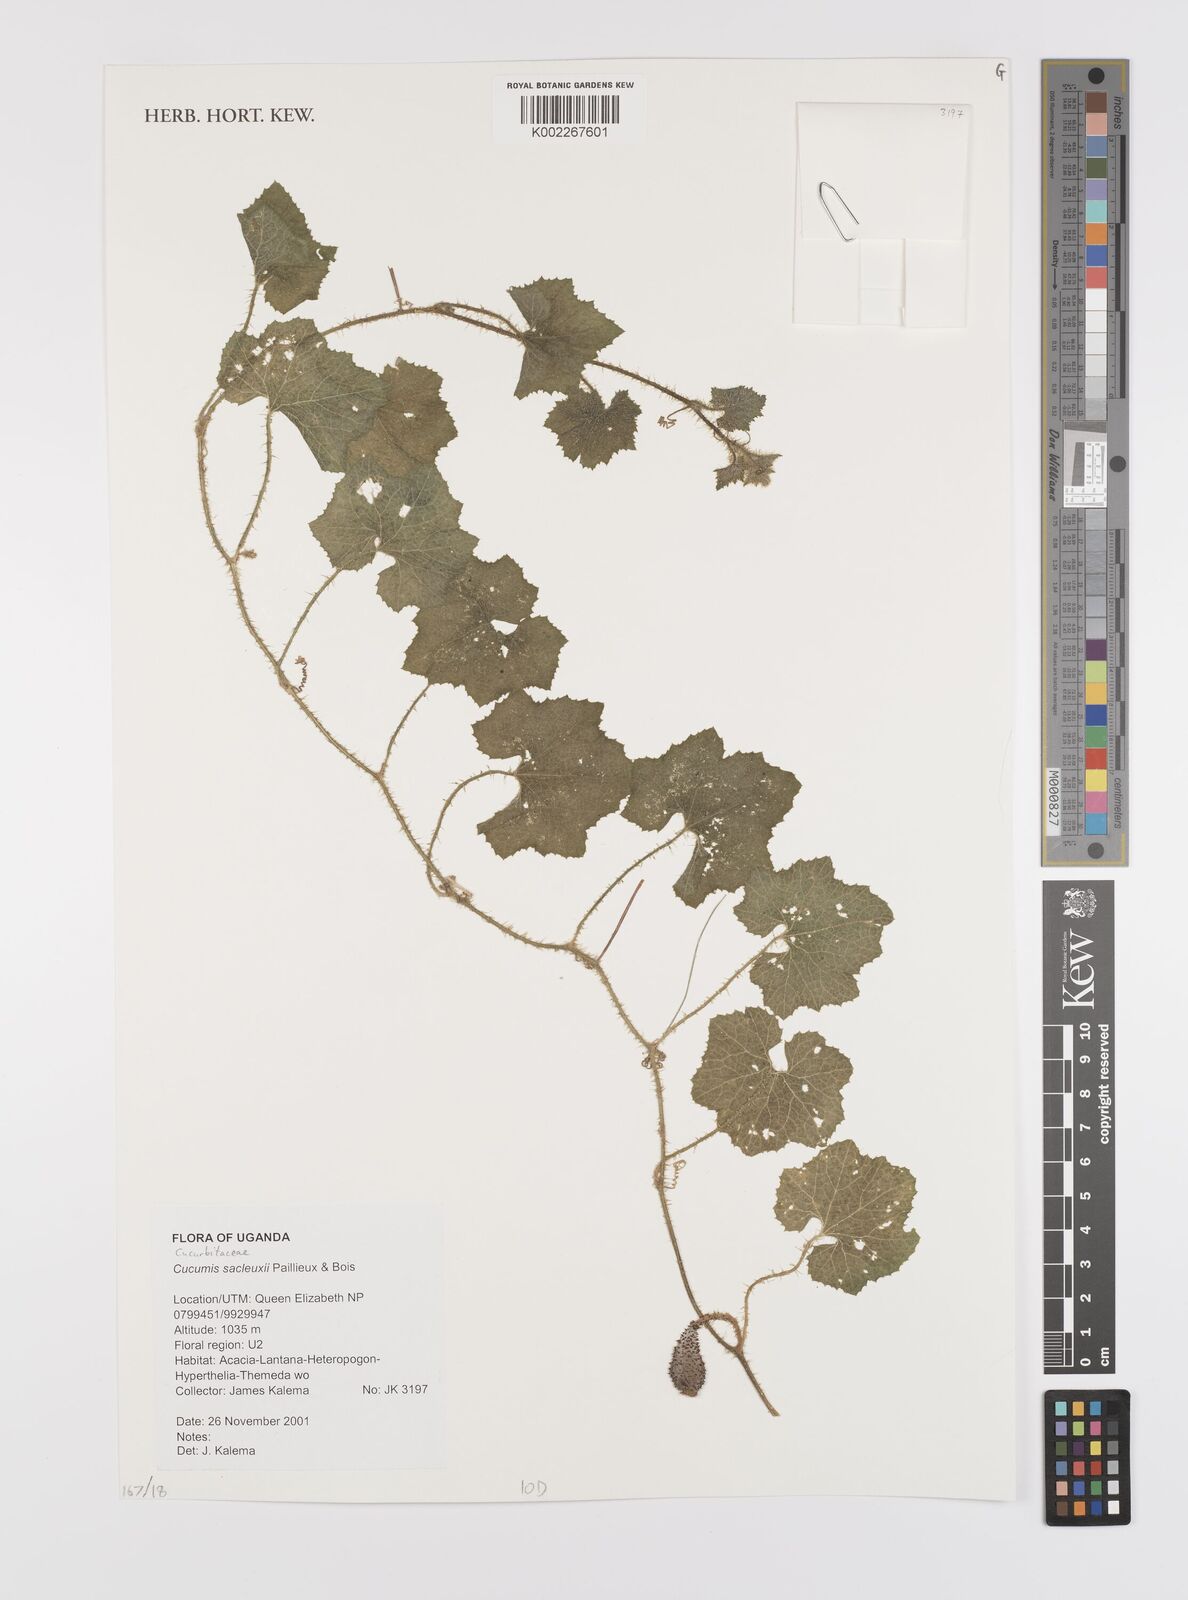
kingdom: Plantae
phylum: Tracheophyta
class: Magnoliopsida
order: Cucurbitales
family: Cucurbitaceae
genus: Cucumis
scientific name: Cucumis sacleuxii
